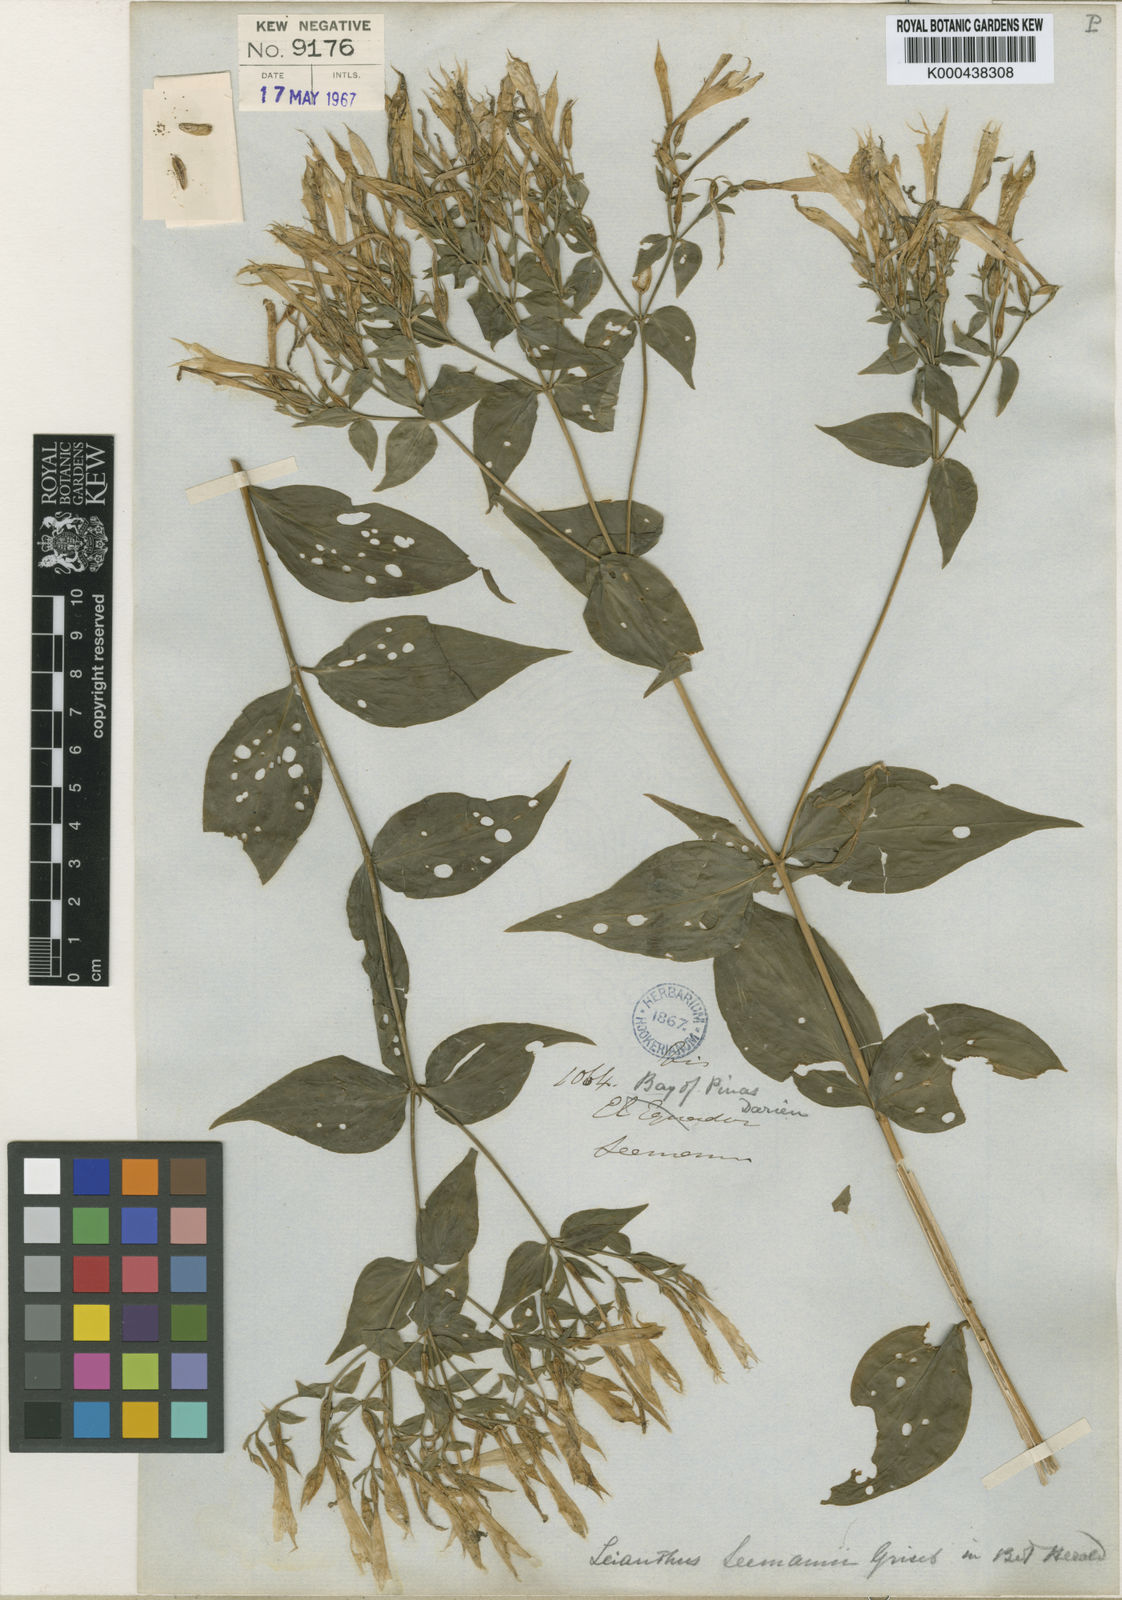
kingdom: Plantae
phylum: Tracheophyta
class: Magnoliopsida
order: Gentianales
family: Gentianaceae
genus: Lisianthus
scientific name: Lisianthus seemannii
